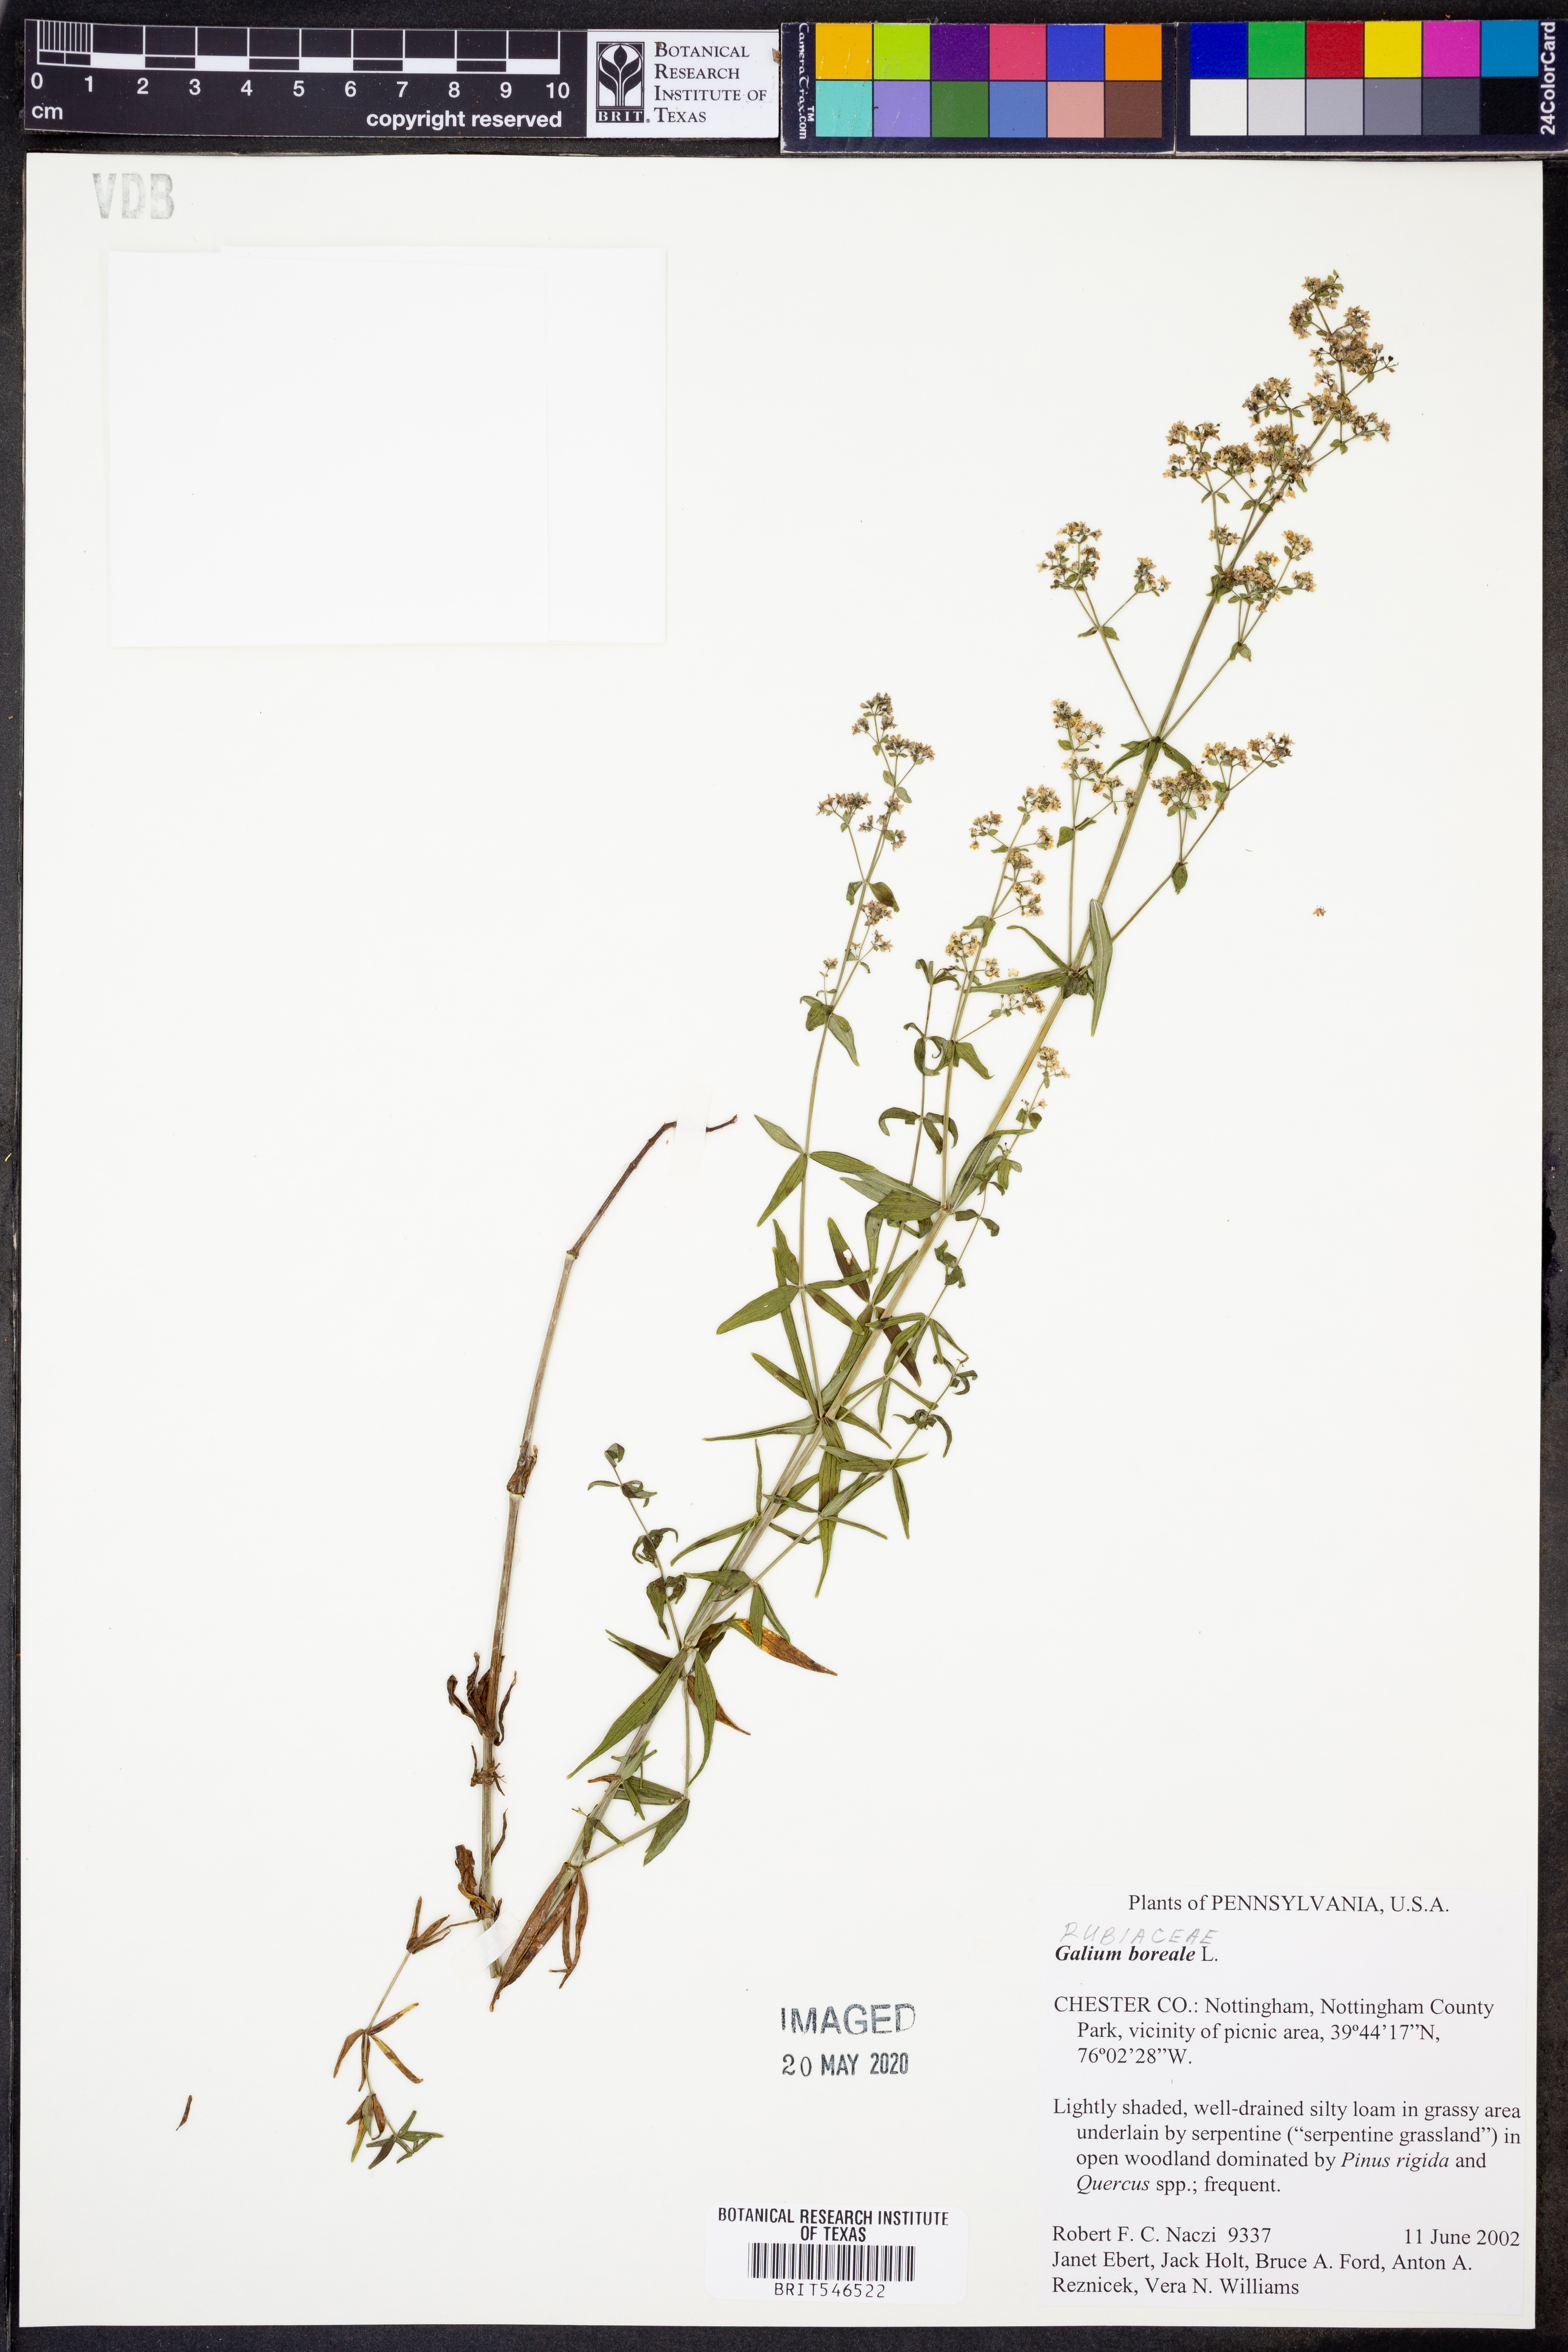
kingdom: Plantae
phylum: Tracheophyta
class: Magnoliopsida
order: Gentianales
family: Rubiaceae
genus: Galium
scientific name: Galium boreale
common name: Northern bedstraw
